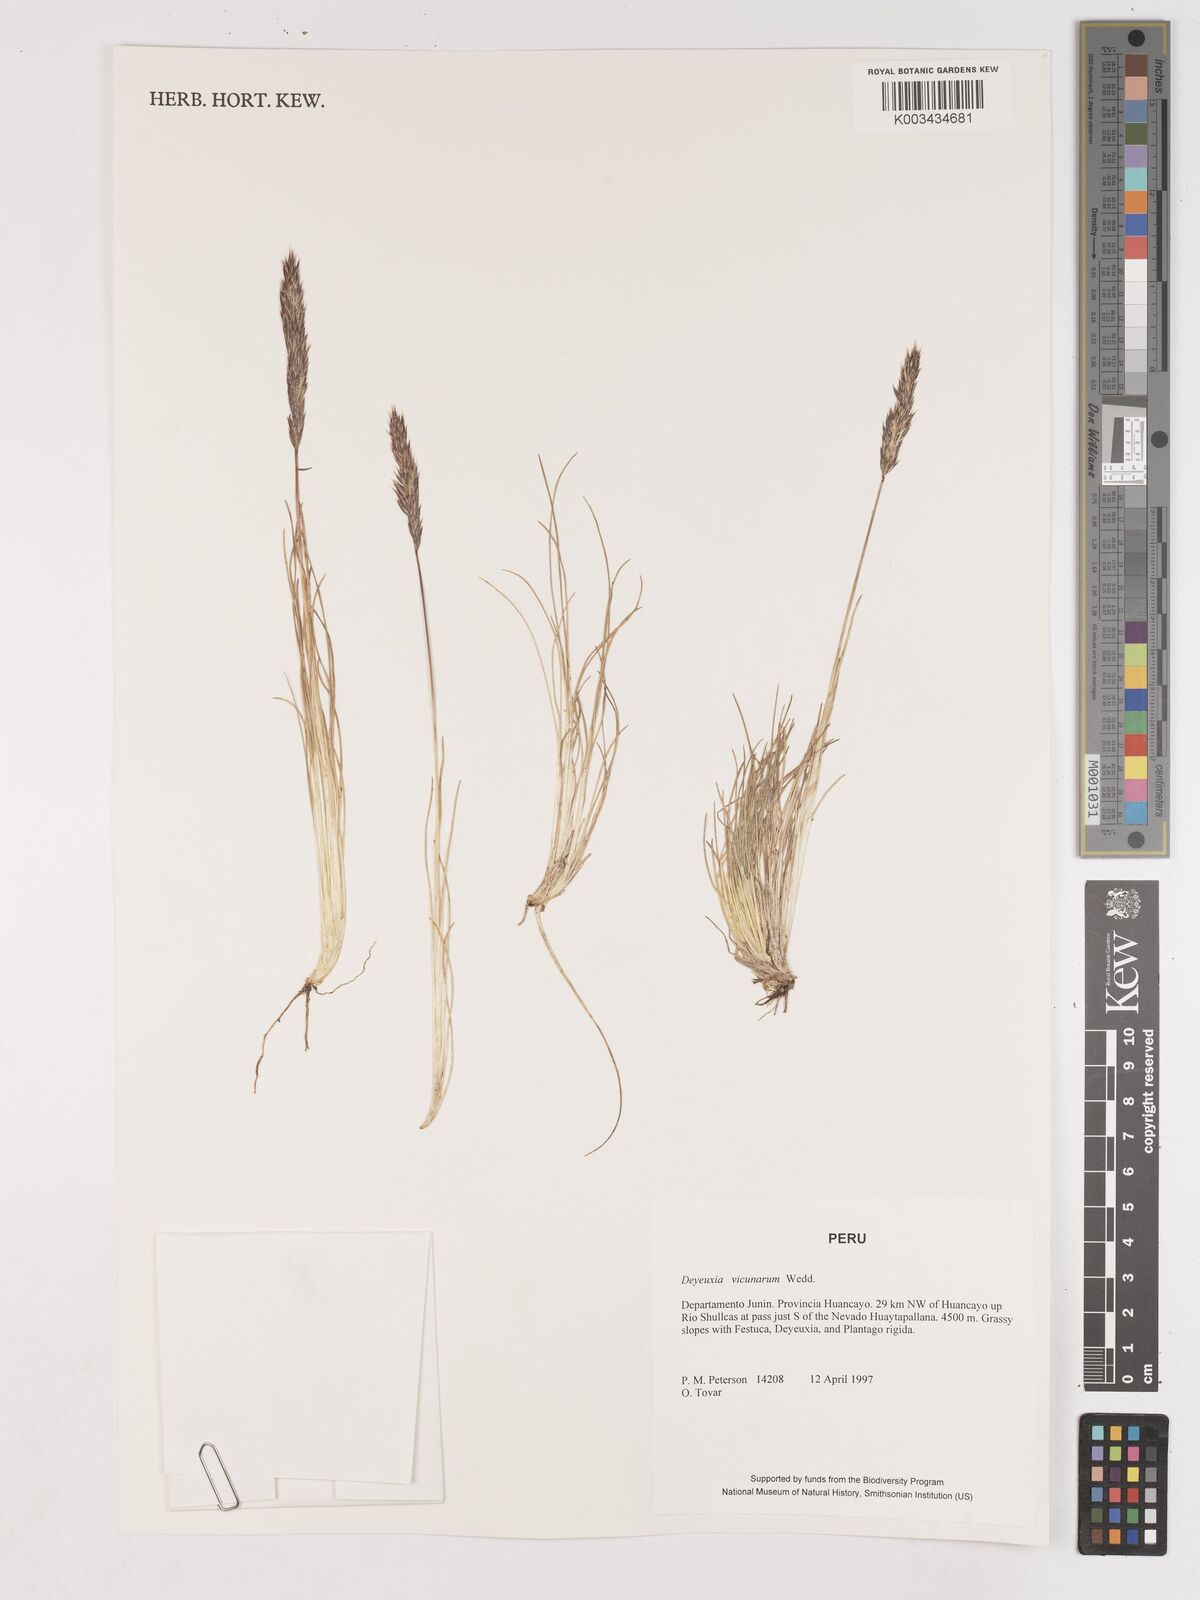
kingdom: Plantae
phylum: Tracheophyta
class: Liliopsida
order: Poales
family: Poaceae
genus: Cinnagrostis
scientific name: Cinnagrostis vicunarum
